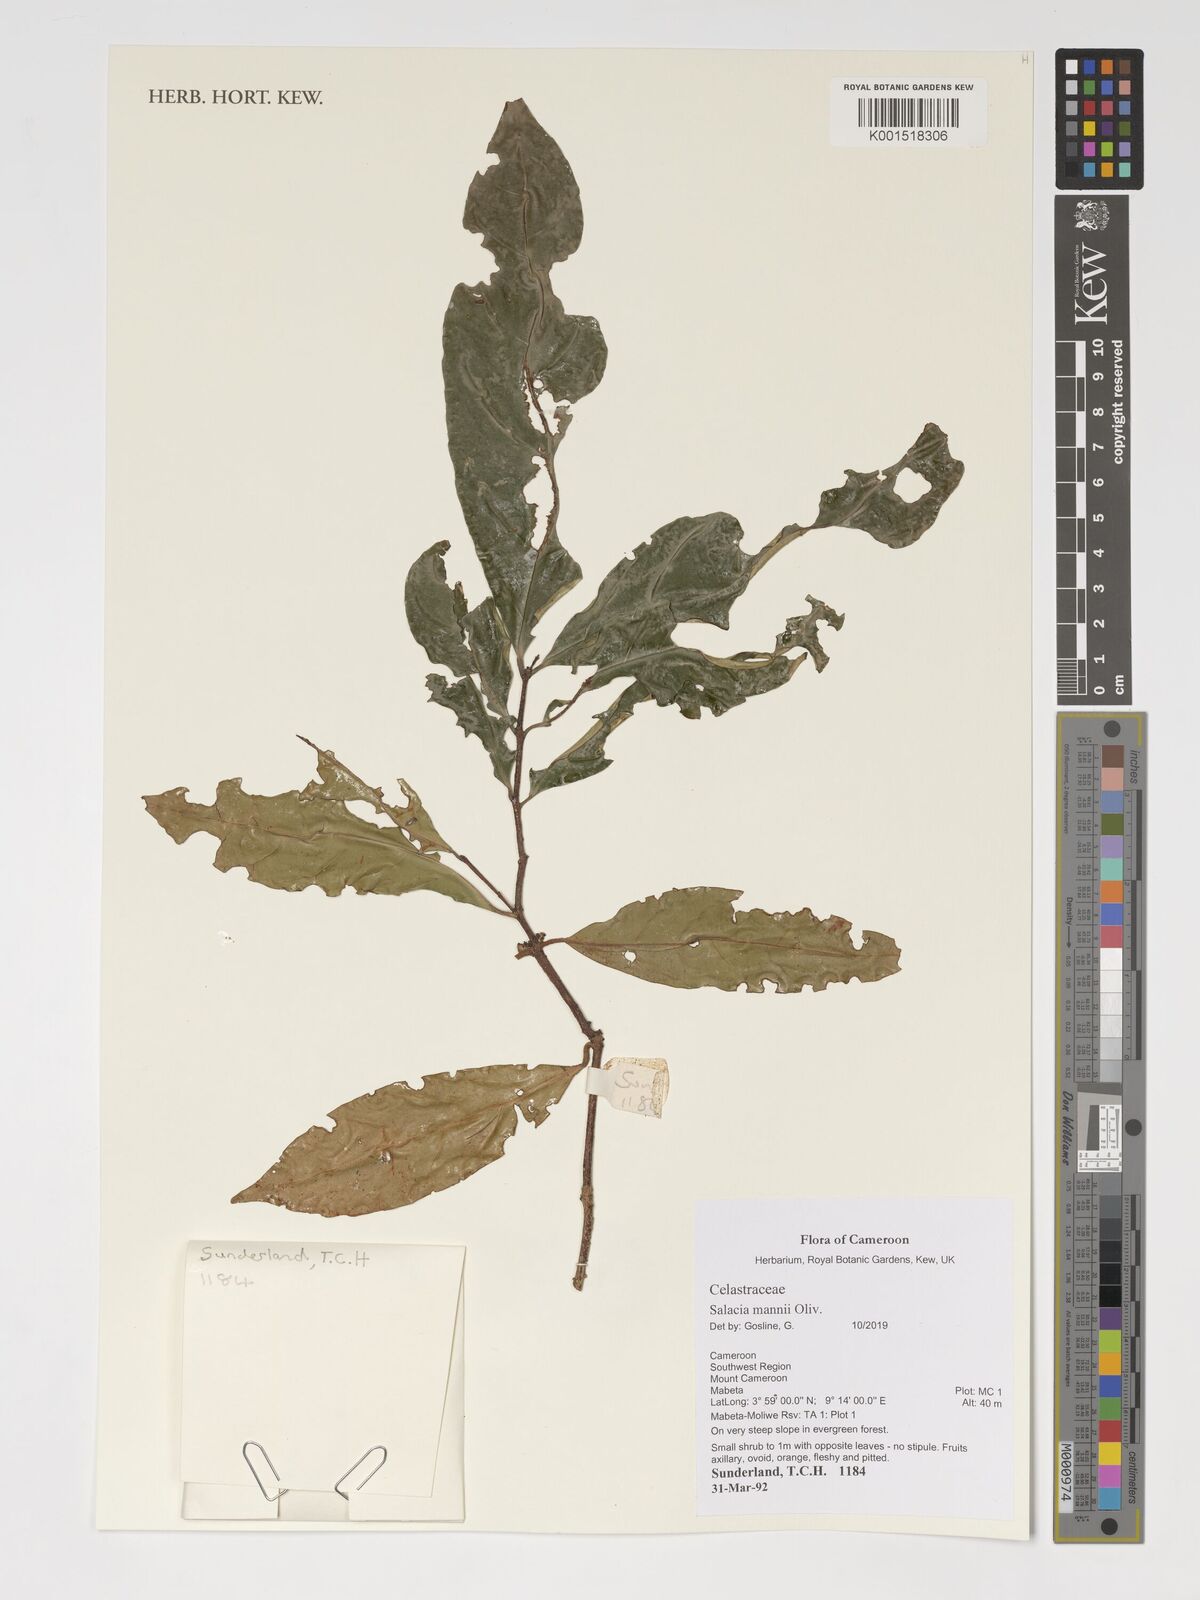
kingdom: Plantae
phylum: Tracheophyta
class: Magnoliopsida
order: Celastrales
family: Celastraceae
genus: Salacia
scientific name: Salacia mannii
